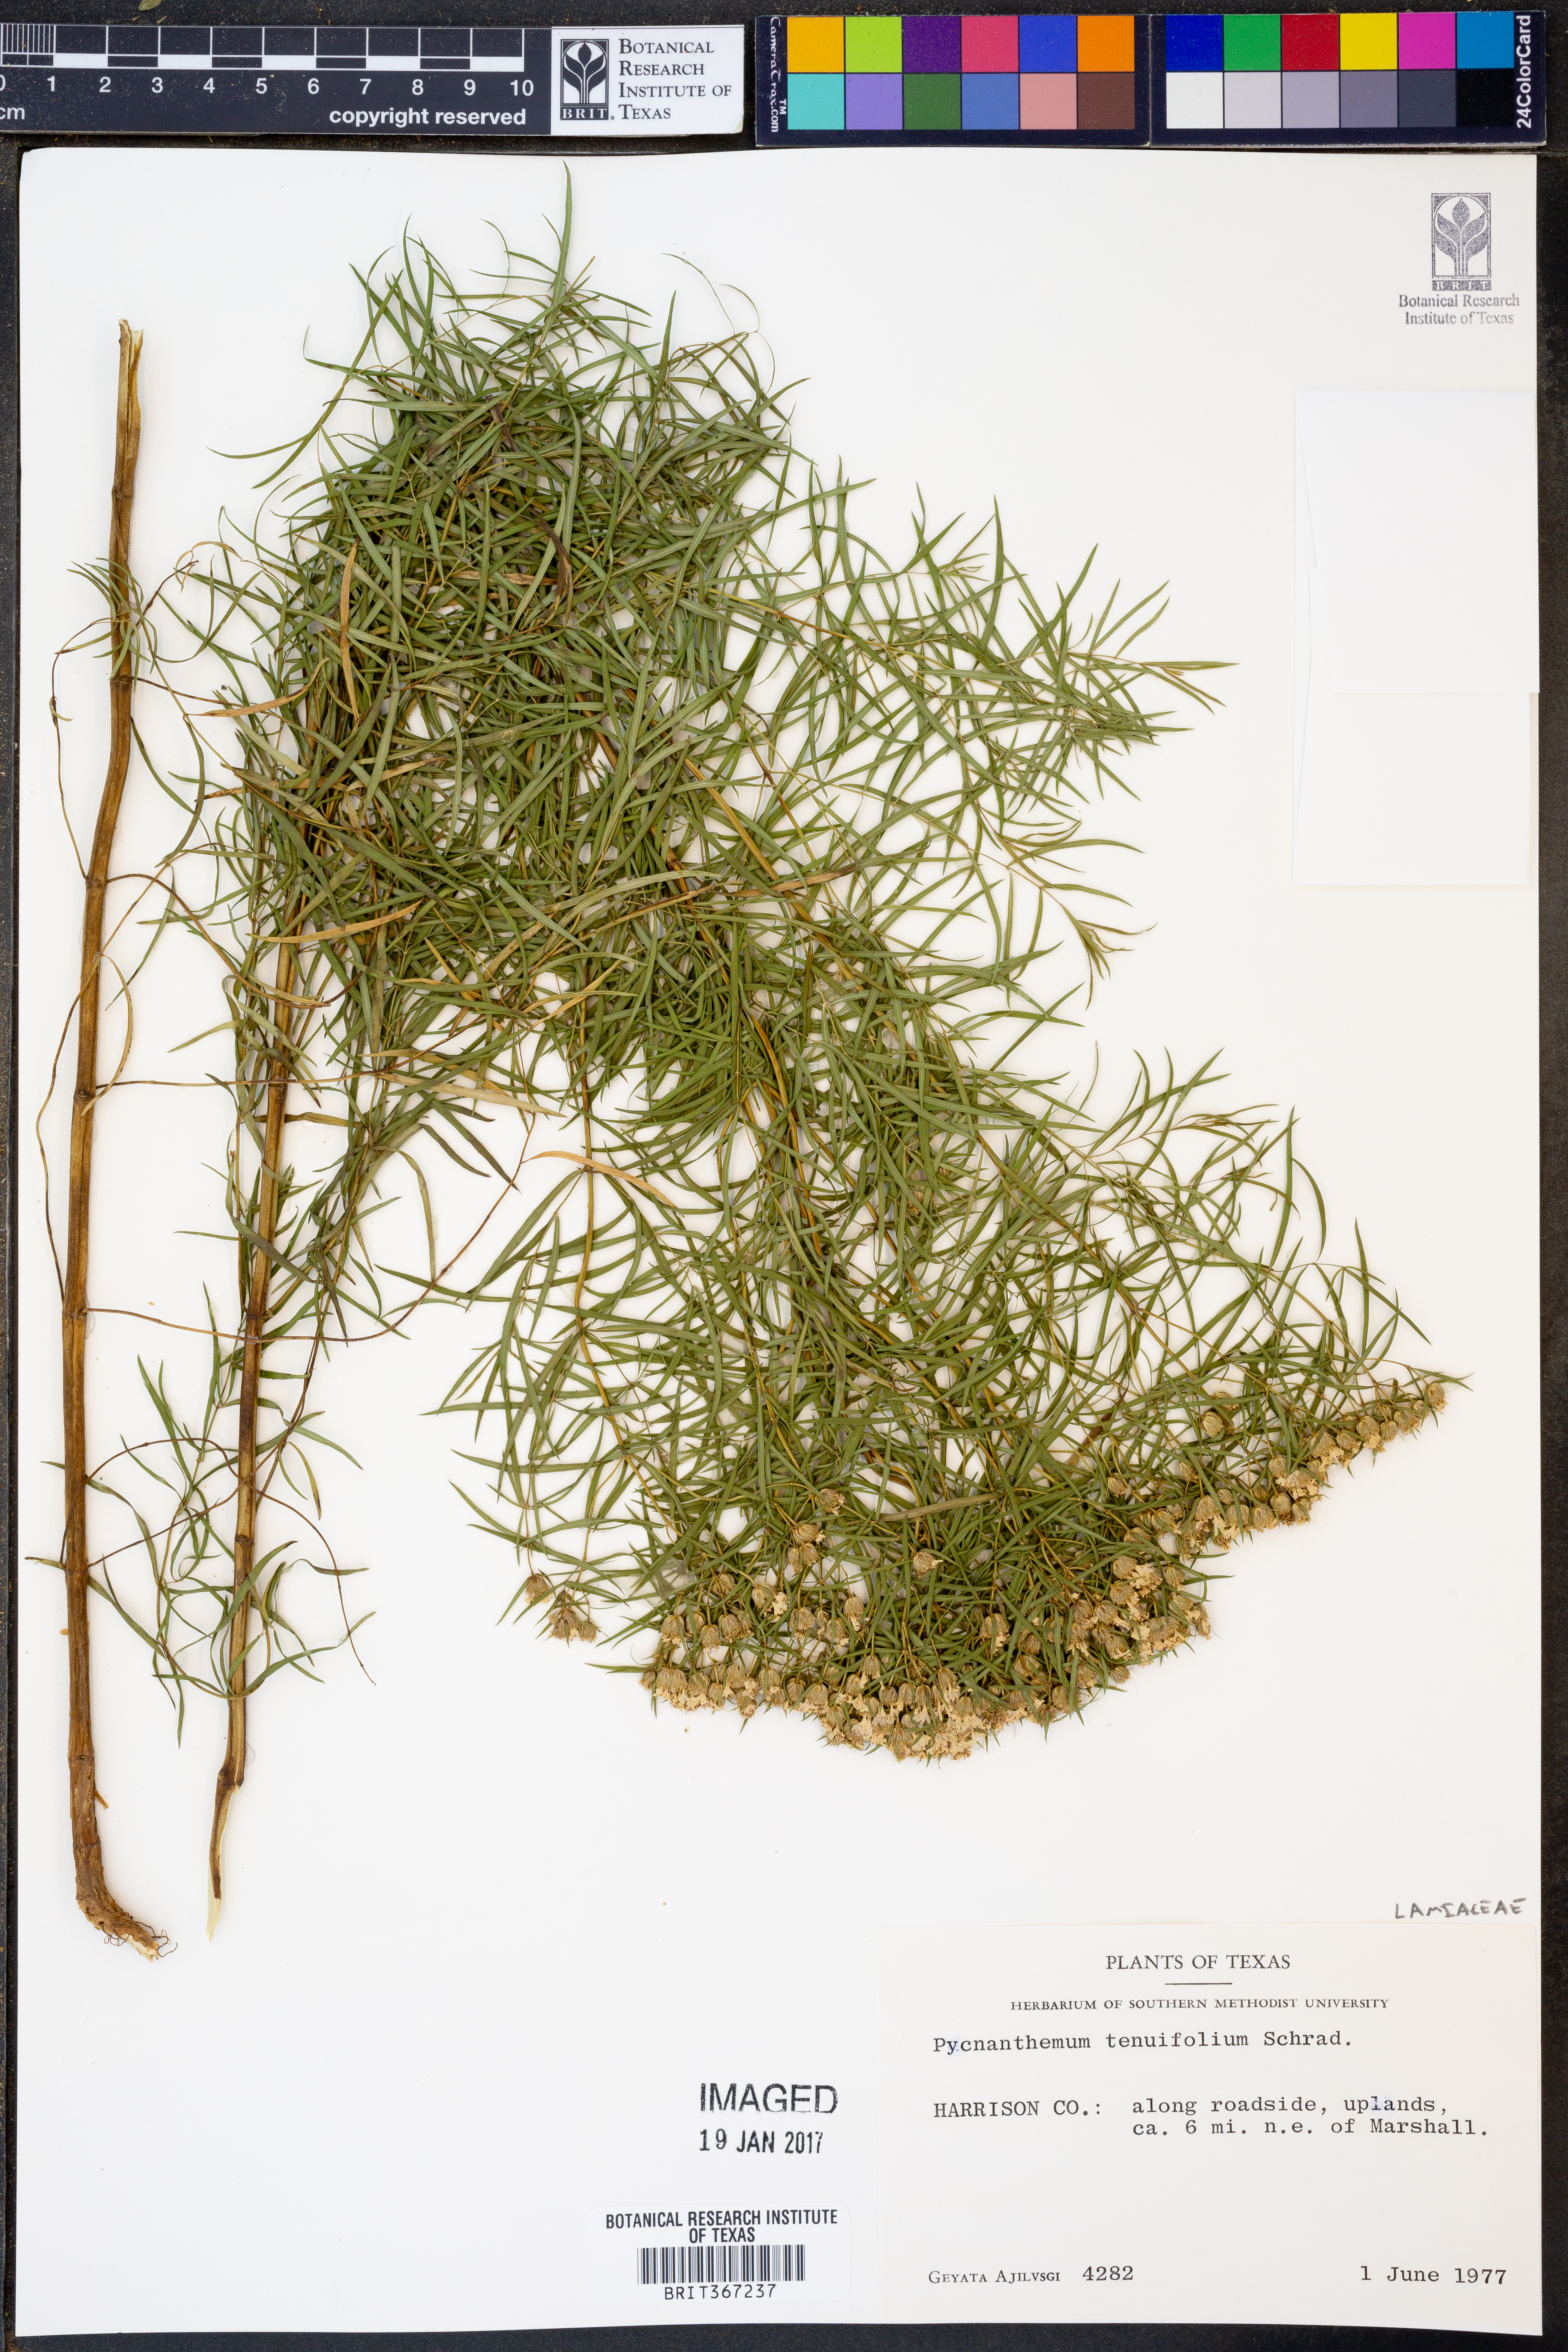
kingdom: Plantae
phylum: Tracheophyta
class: Magnoliopsida
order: Lamiales
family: Lamiaceae
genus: Pycnanthemum
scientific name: Pycnanthemum tenuifolium
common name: Narrow-leaf mountain-mint
